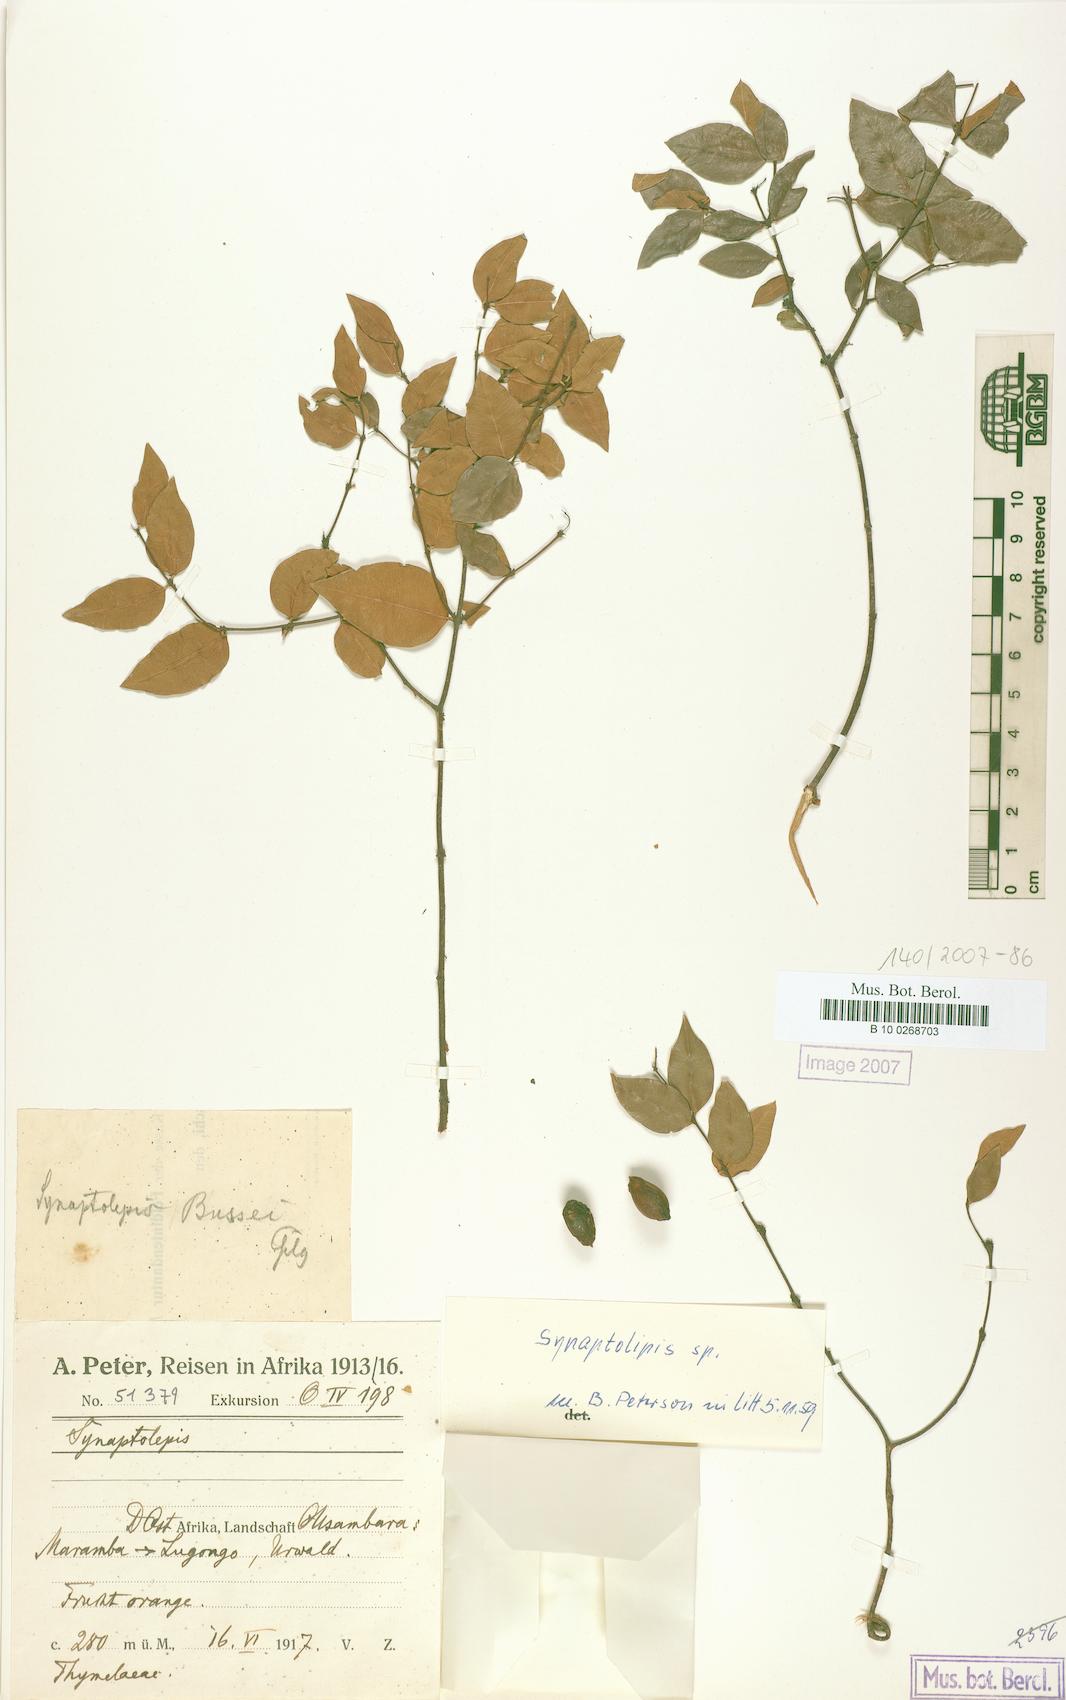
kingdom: Plantae
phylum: Tracheophyta
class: Magnoliopsida
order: Malvales
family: Thymelaeaceae
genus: Synaptolepis
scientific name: Synaptolepis
